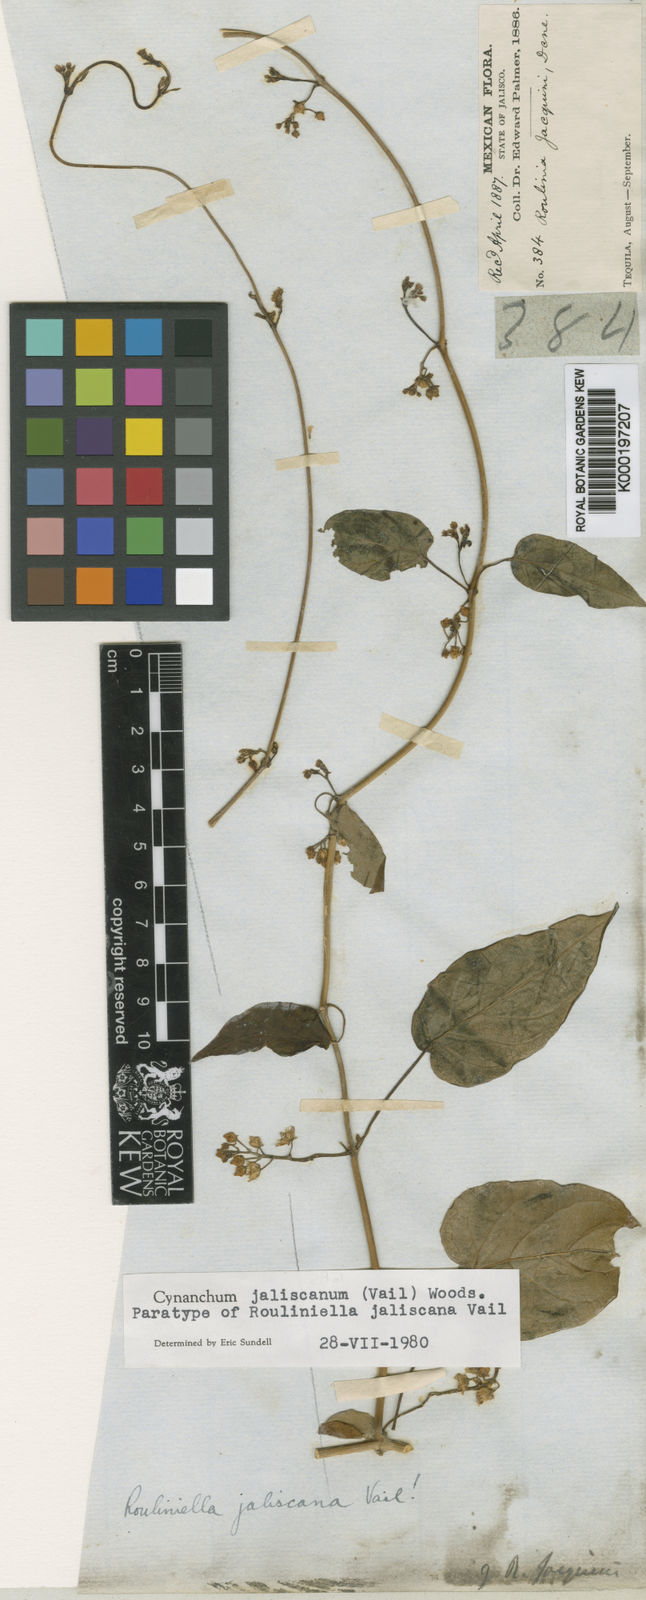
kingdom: Plantae
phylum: Tracheophyta
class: Magnoliopsida
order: Gentianales
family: Apocynaceae
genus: Cynanchum
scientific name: Cynanchum jaliscanum
